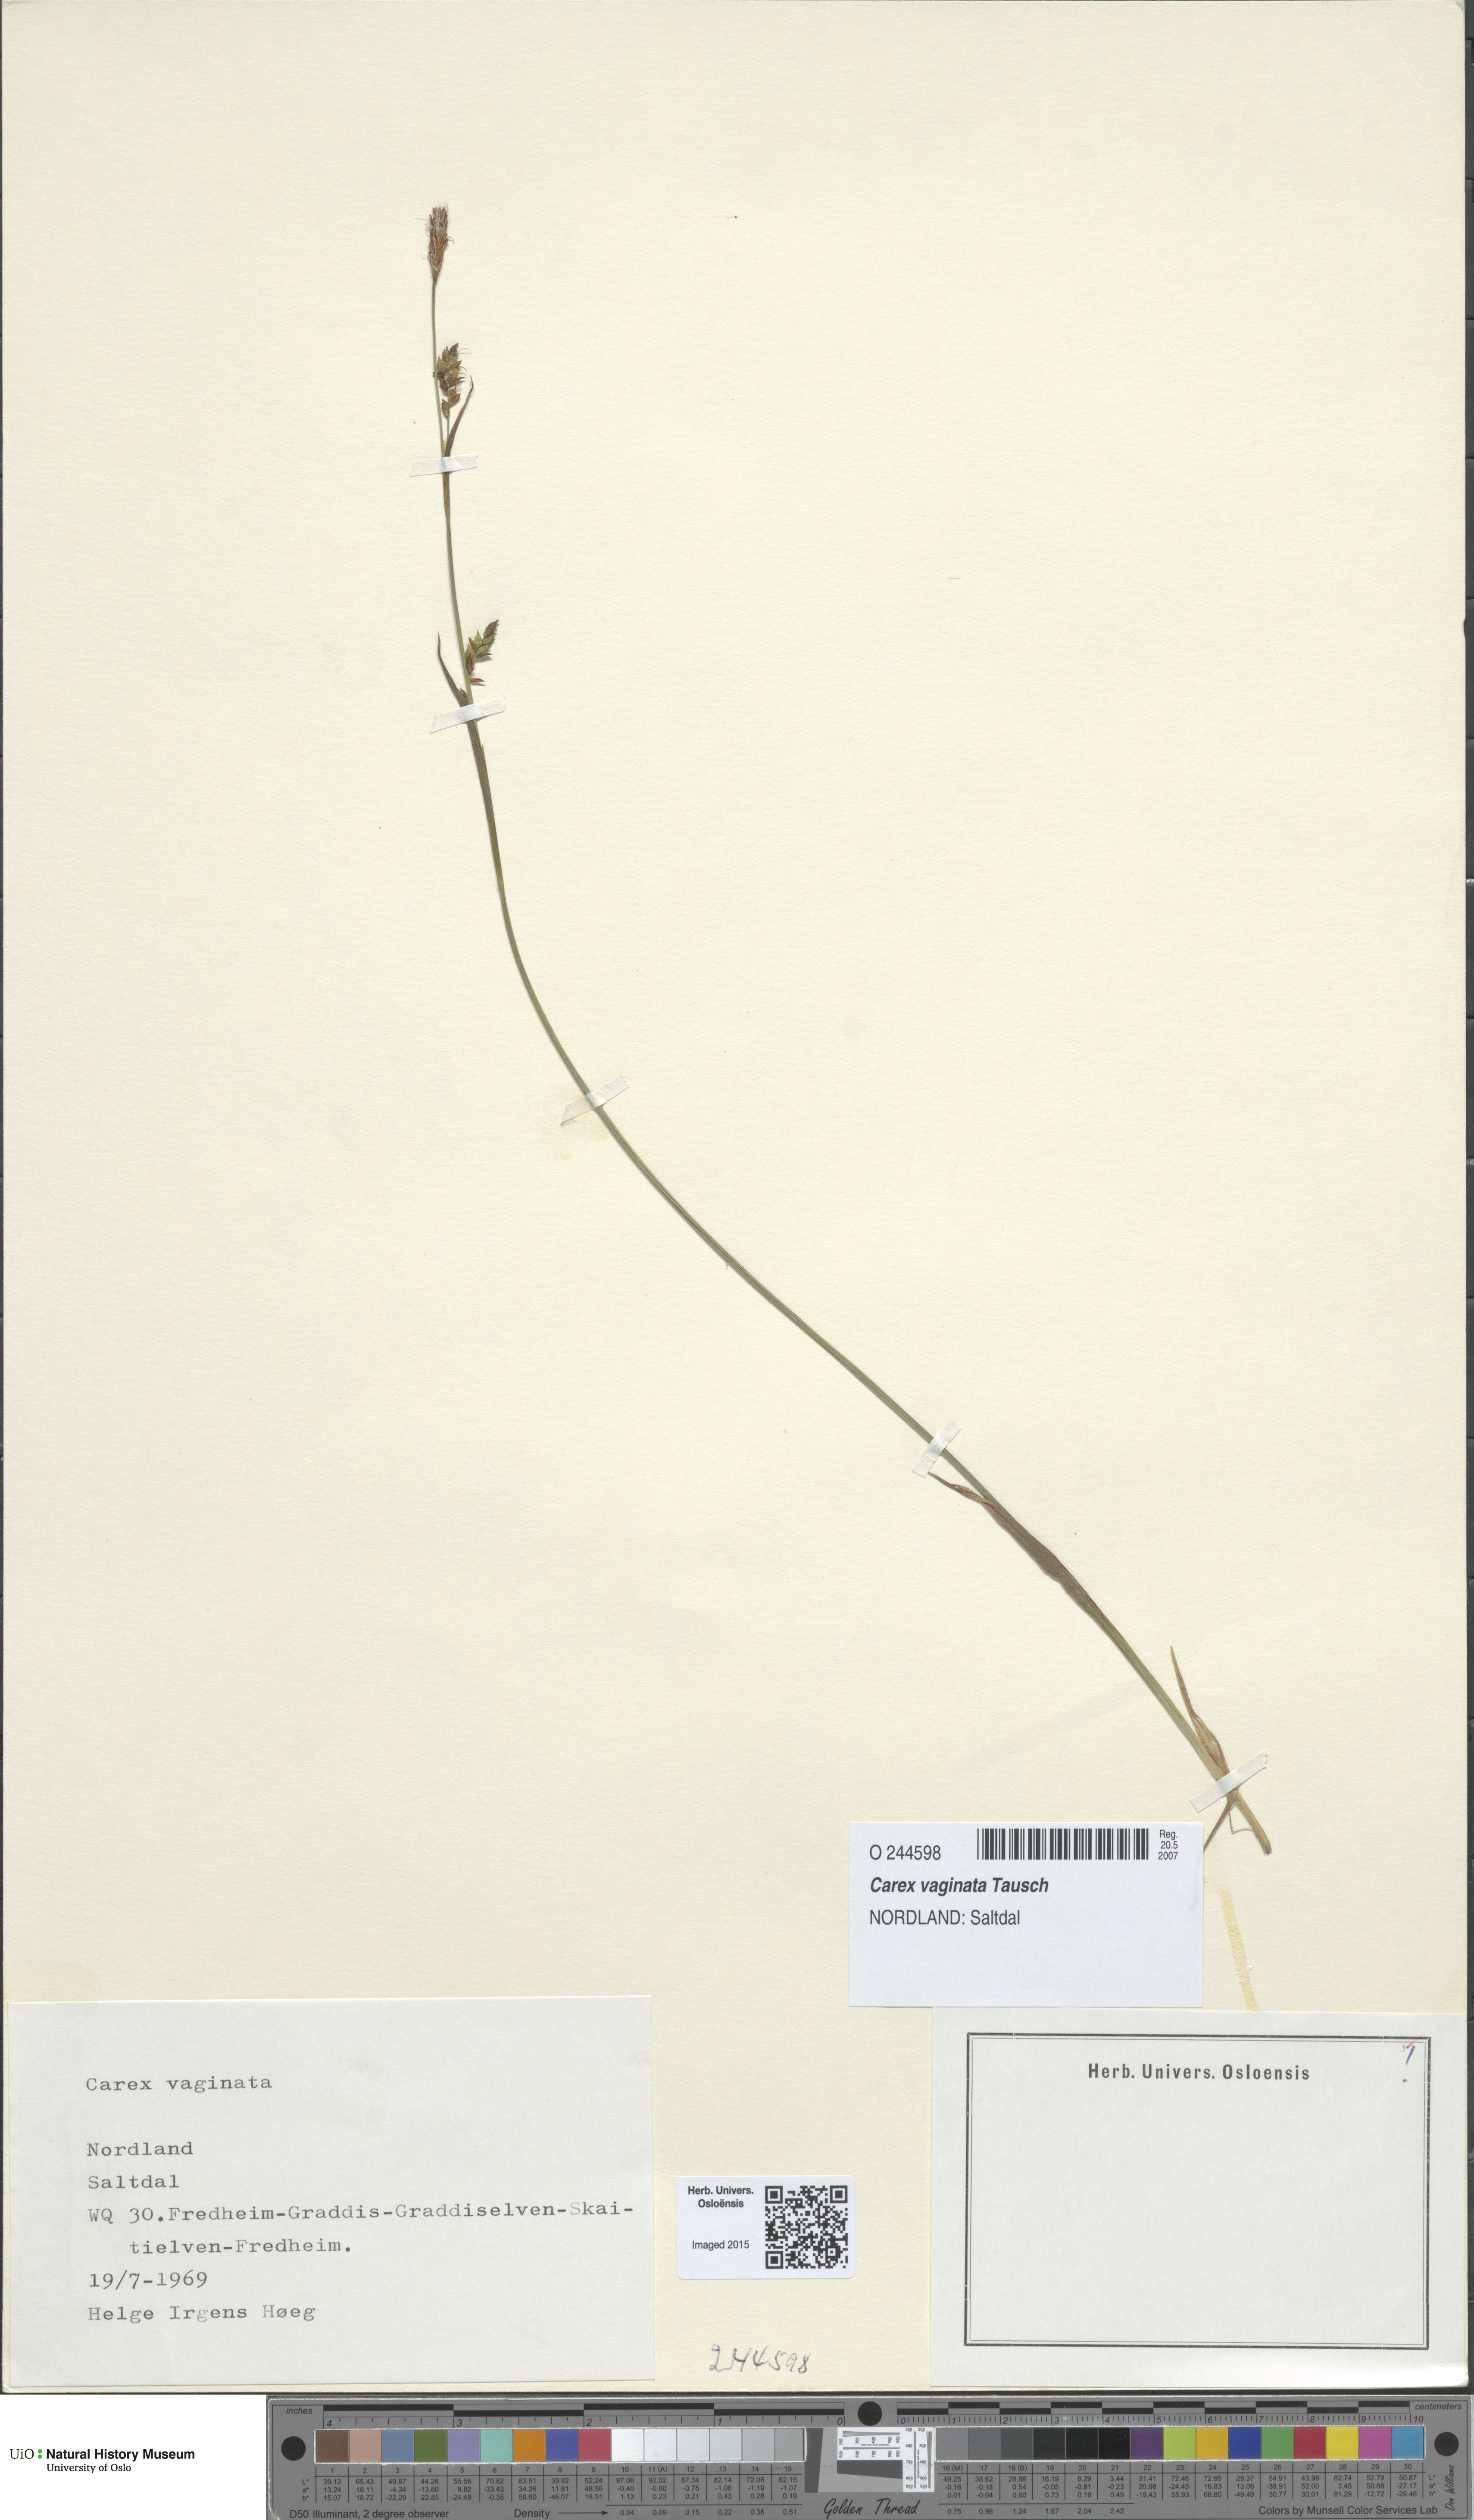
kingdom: Plantae
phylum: Tracheophyta
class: Liliopsida
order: Poales
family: Cyperaceae
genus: Carex
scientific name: Carex vaginata
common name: Sheathed sedge
